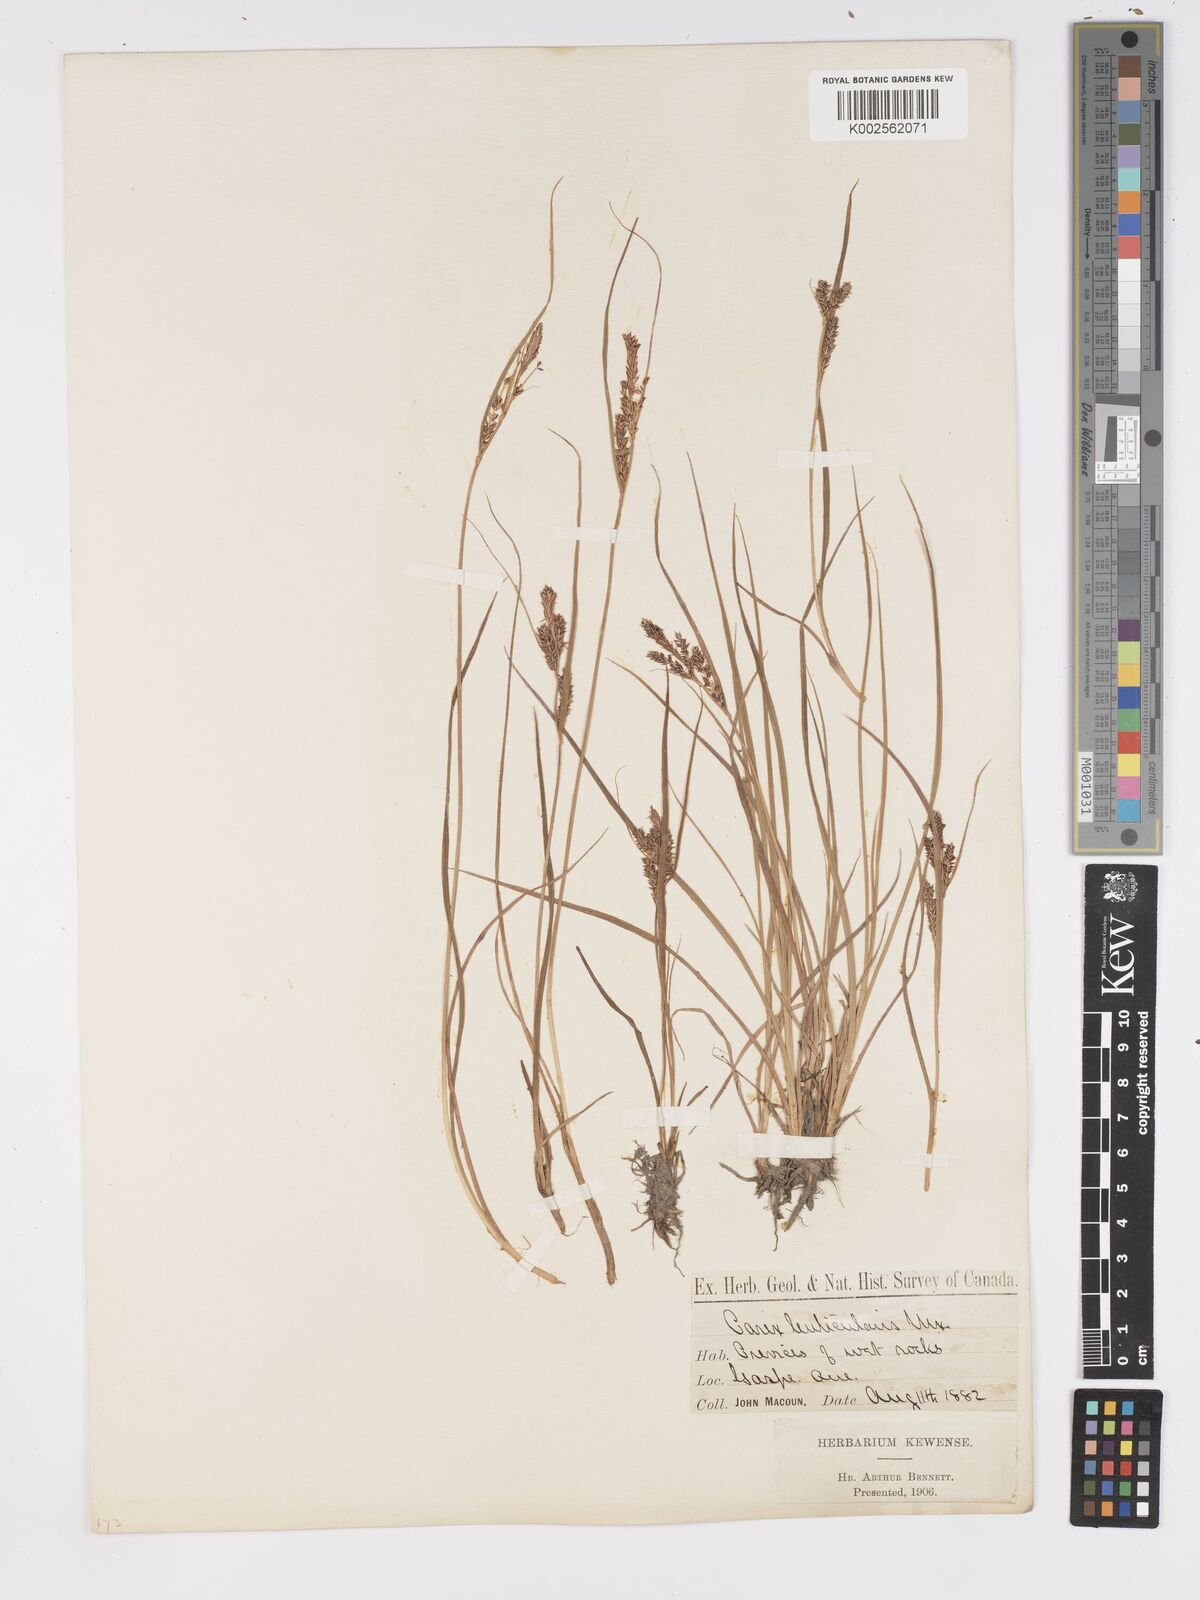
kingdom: Plantae
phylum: Tracheophyta
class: Liliopsida
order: Poales
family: Cyperaceae
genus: Carex
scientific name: Carex lenticularis
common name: Lakeshore sedge
